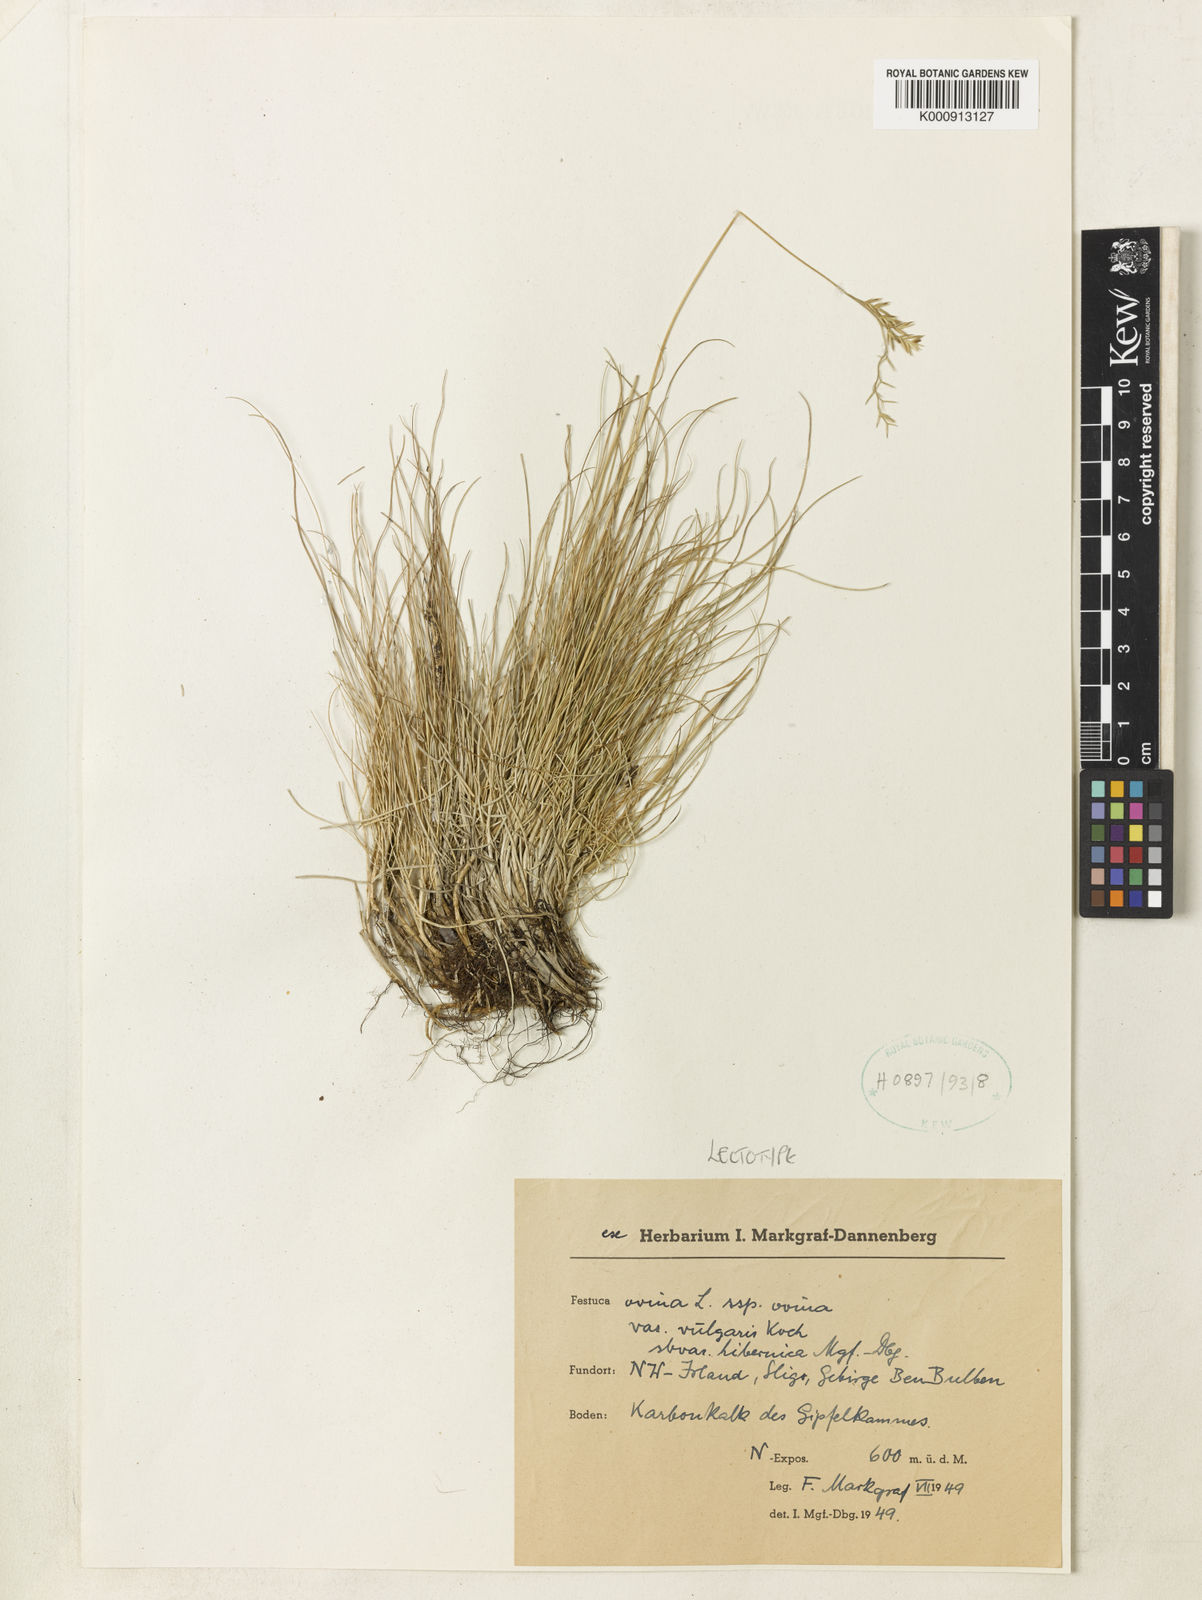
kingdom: Plantae
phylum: Tracheophyta
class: Liliopsida
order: Poales
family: Poaceae
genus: Festuca
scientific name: Festuca ovina
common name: Sheep fescue
